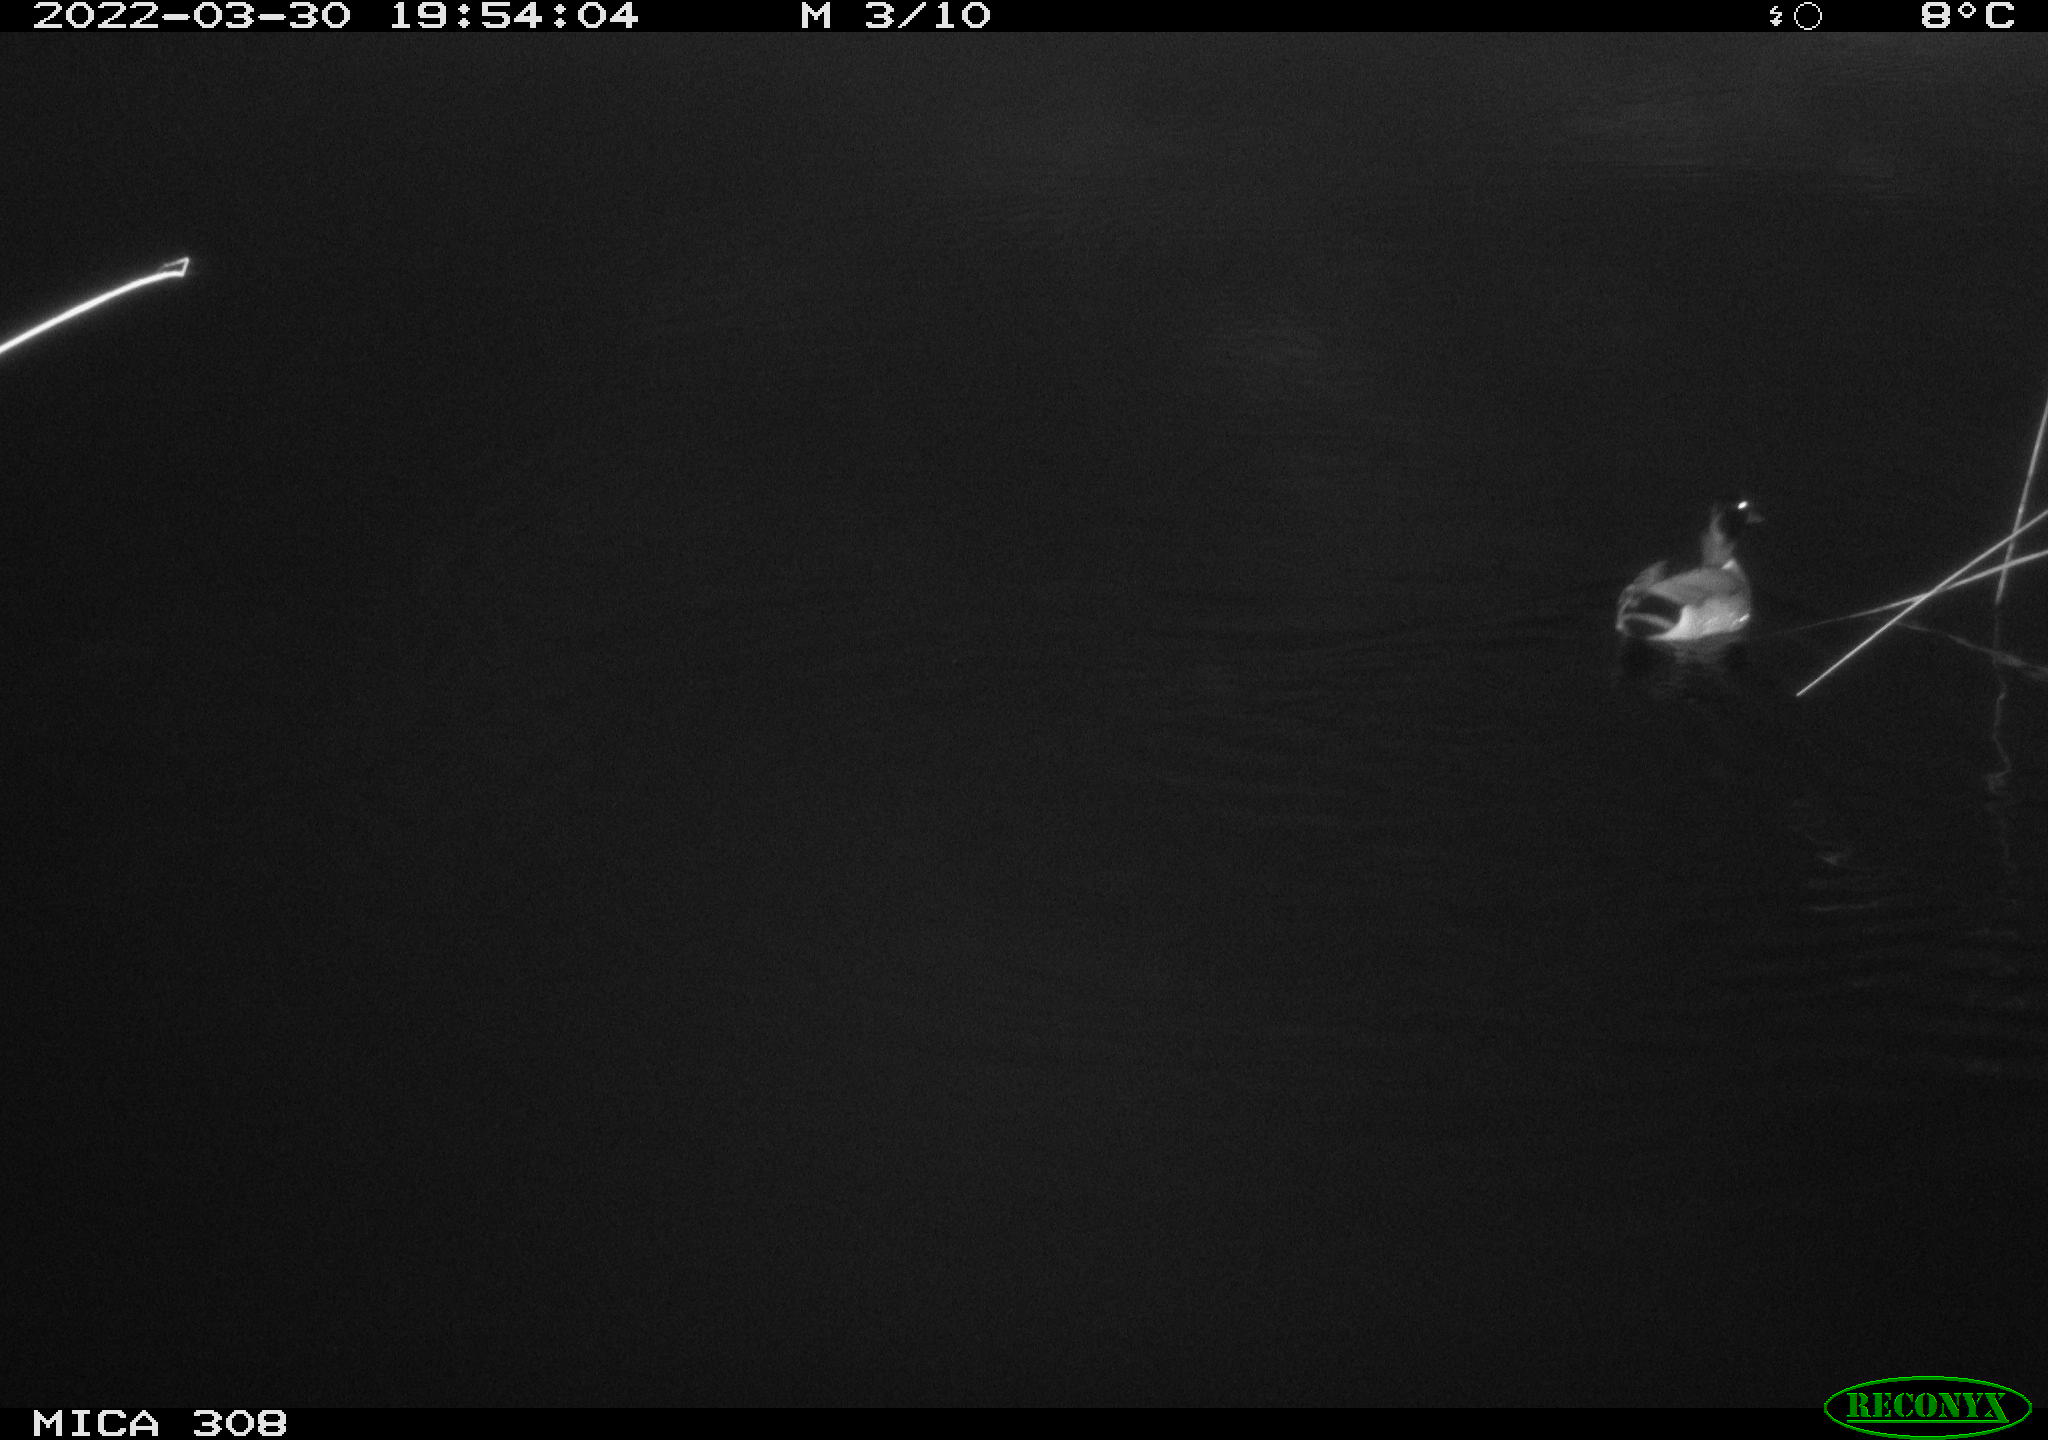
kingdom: Animalia
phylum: Chordata
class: Aves
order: Anseriformes
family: Anatidae
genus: Anas
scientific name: Anas platyrhynchos
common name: Mallard
